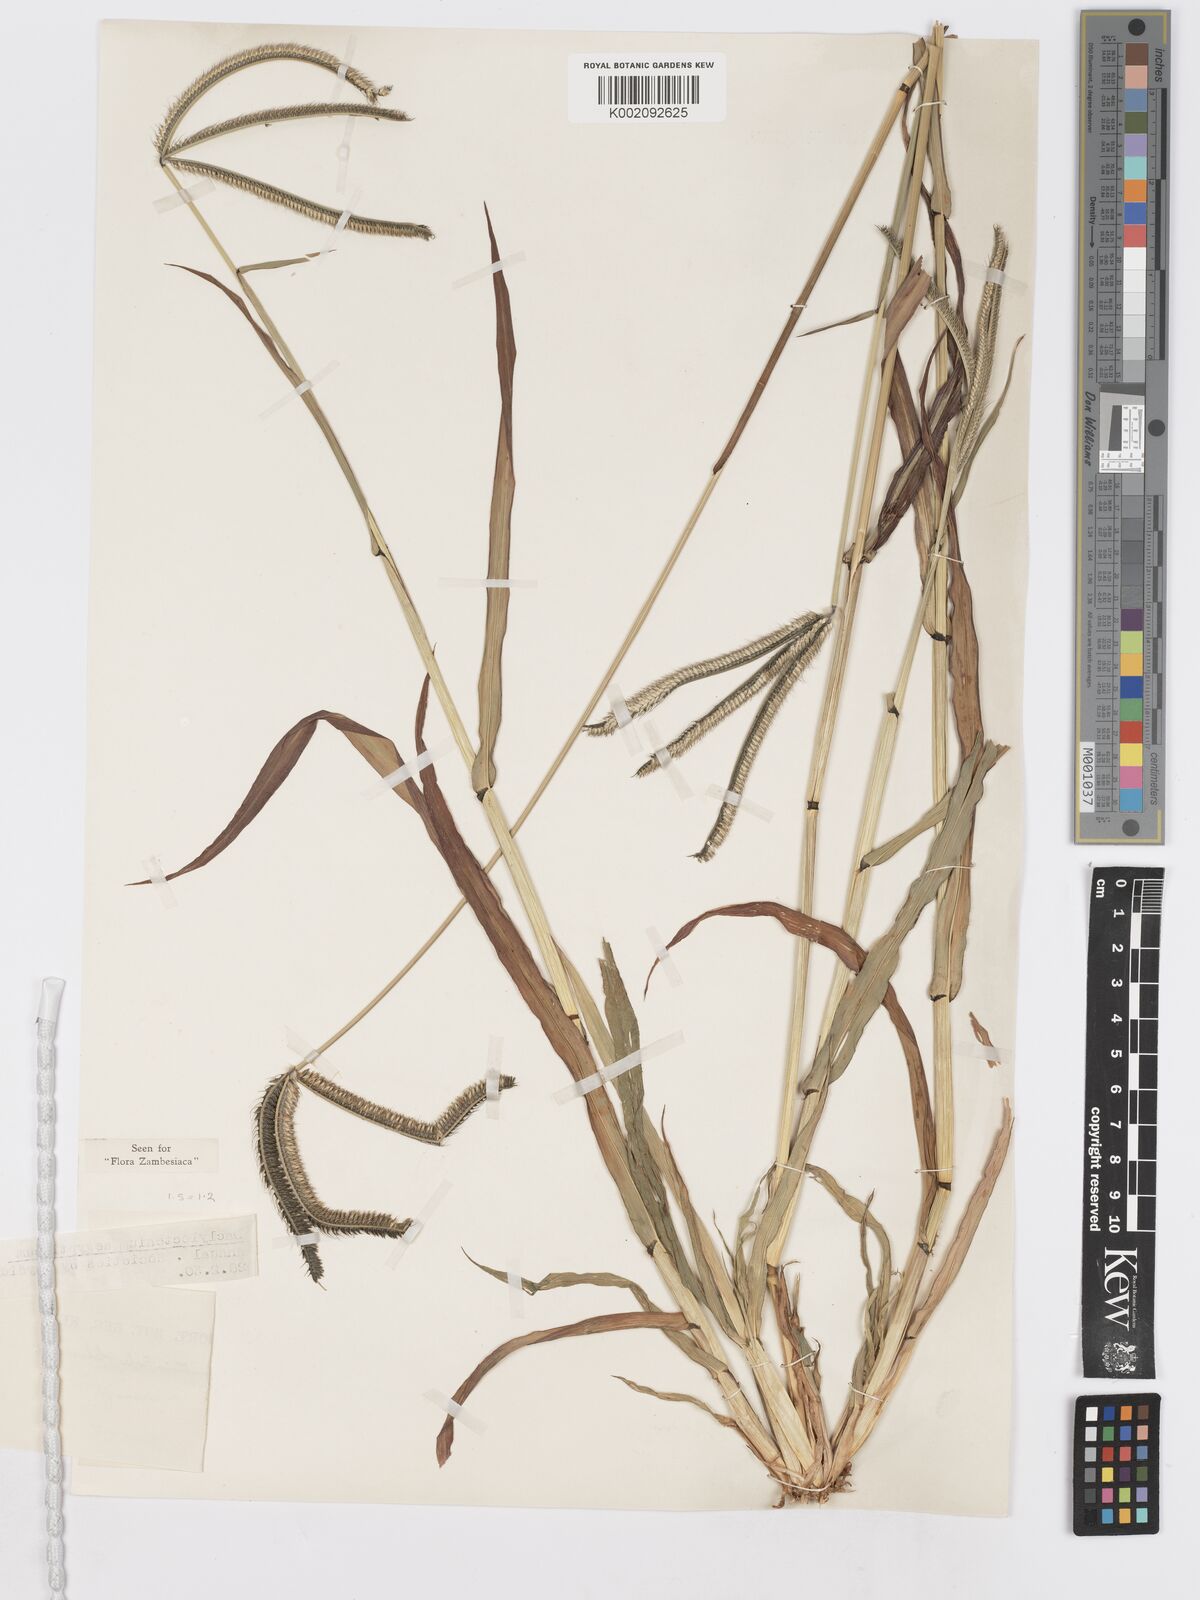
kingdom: Plantae
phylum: Tracheophyta
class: Liliopsida
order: Poales
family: Poaceae
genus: Dactyloctenium
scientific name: Dactyloctenium giganteum
